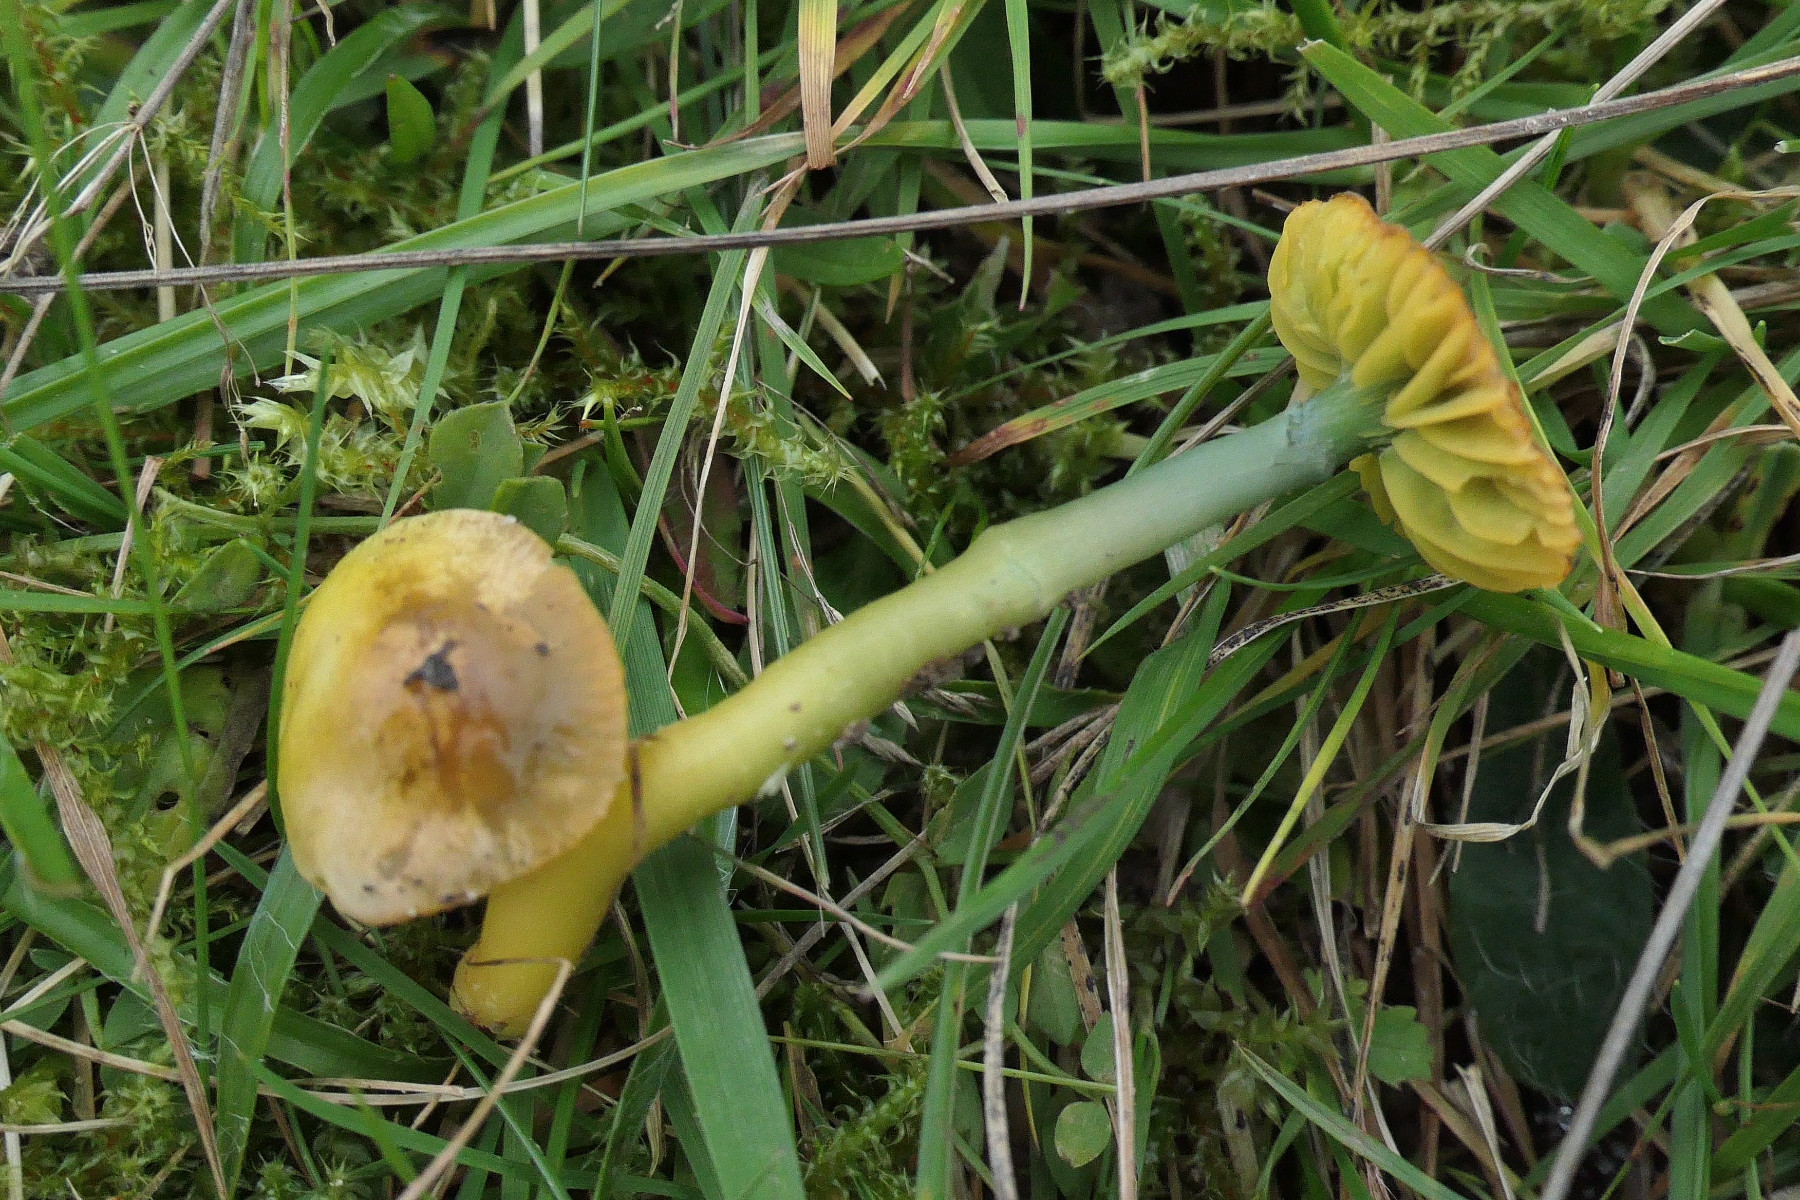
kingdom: Fungi
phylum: Basidiomycota
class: Agaricomycetes
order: Agaricales
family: Hygrophoraceae
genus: Gliophorus
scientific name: Gliophorus psittacinus
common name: papegøje-vokshat
